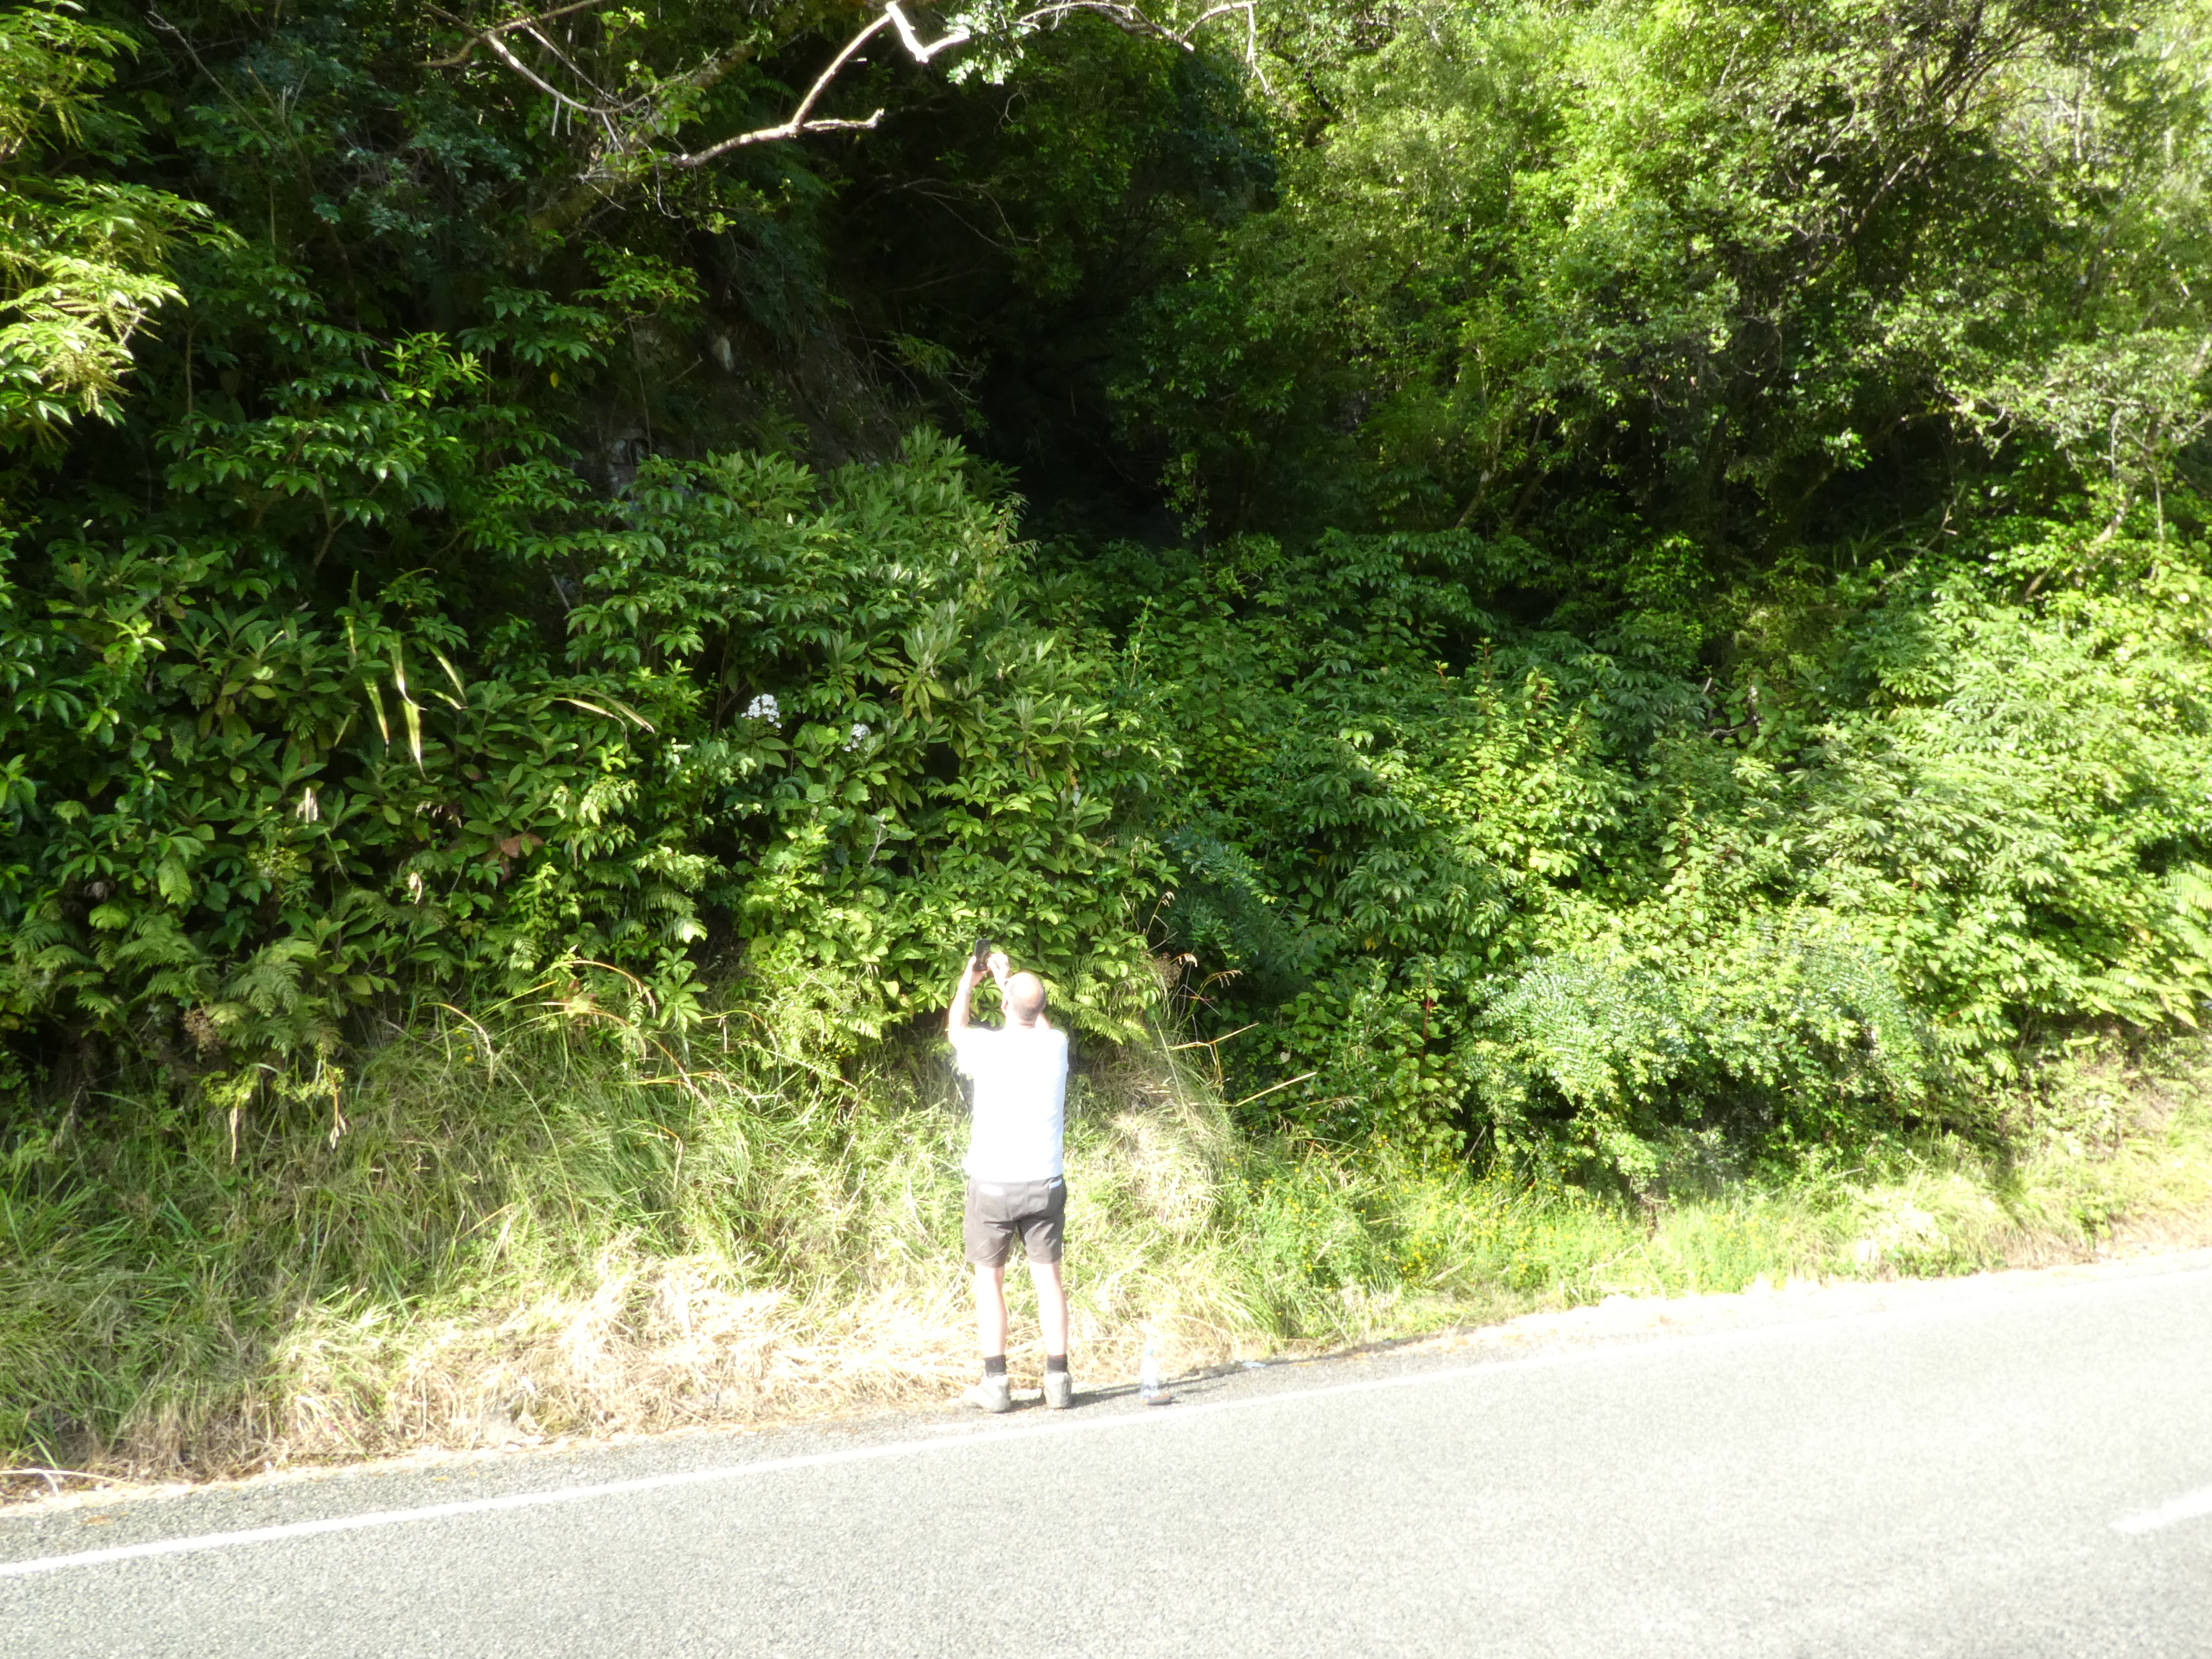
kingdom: Plantae
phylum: Tracheophyta
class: Magnoliopsida
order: Asterales
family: Asteraceae
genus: Senecio
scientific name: Senecio minimus
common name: Toothed fireweed
